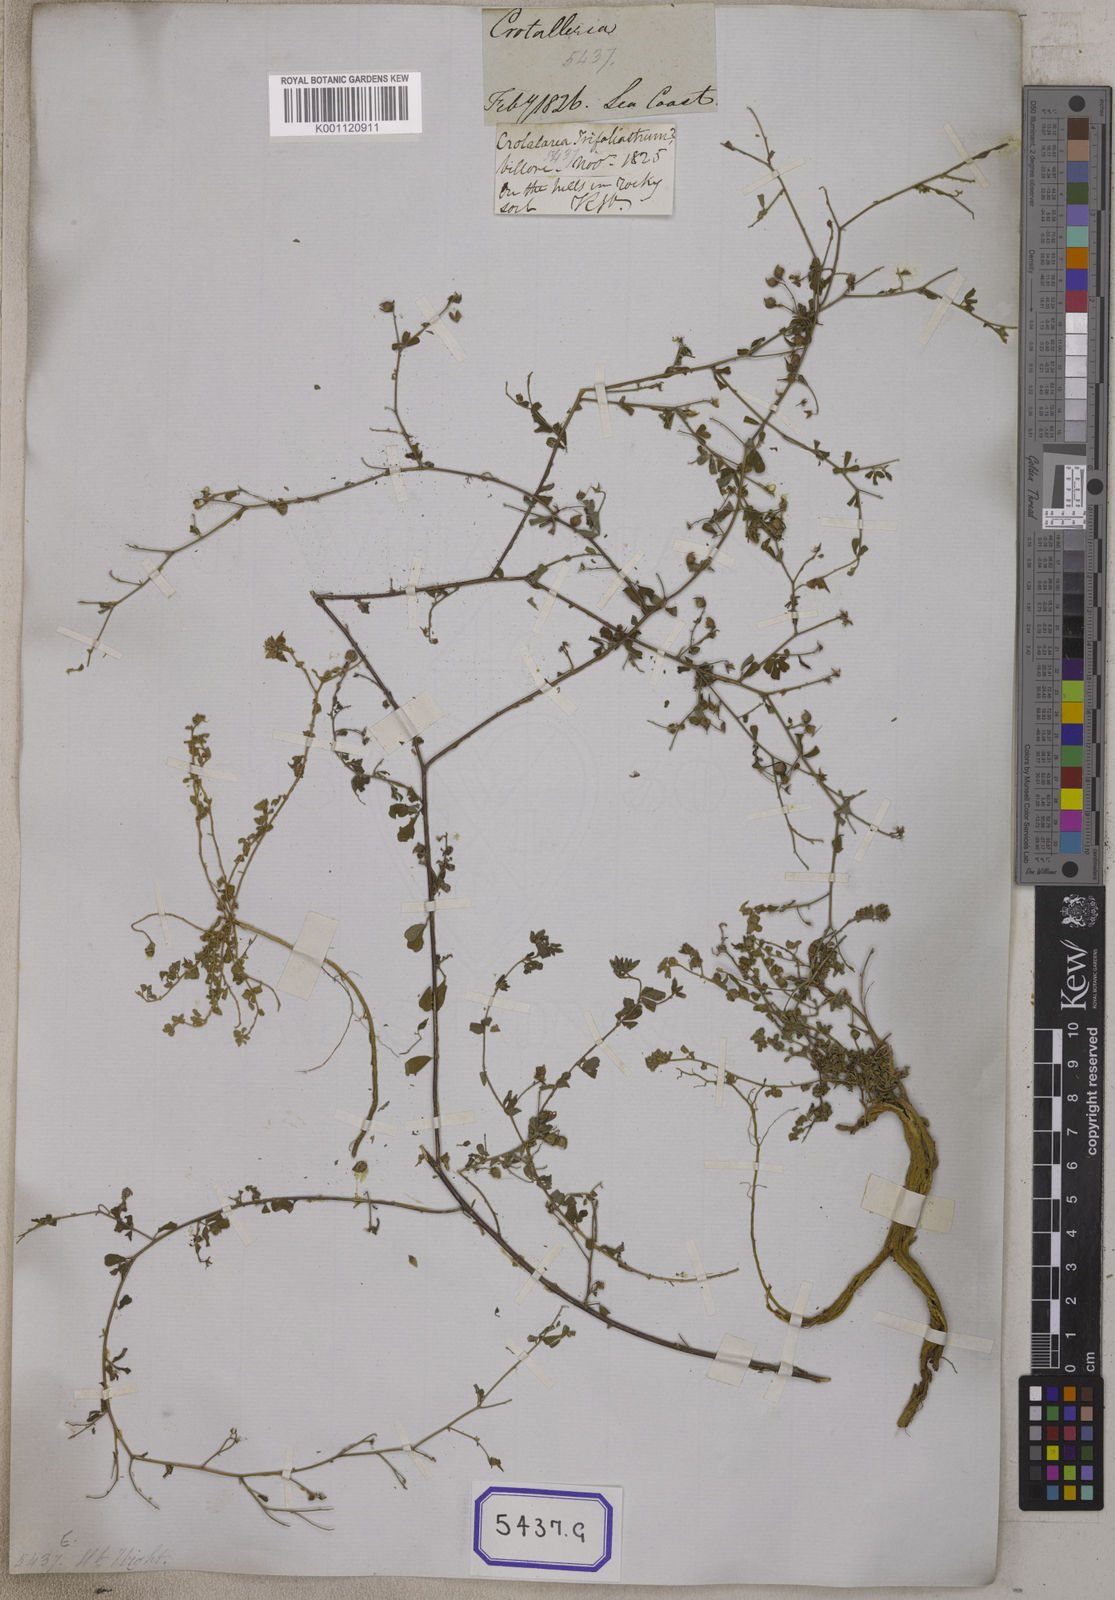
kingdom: Plantae
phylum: Tracheophyta
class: Magnoliopsida
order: Fabales
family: Fabaceae
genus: Crotalaria
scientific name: Crotalaria
